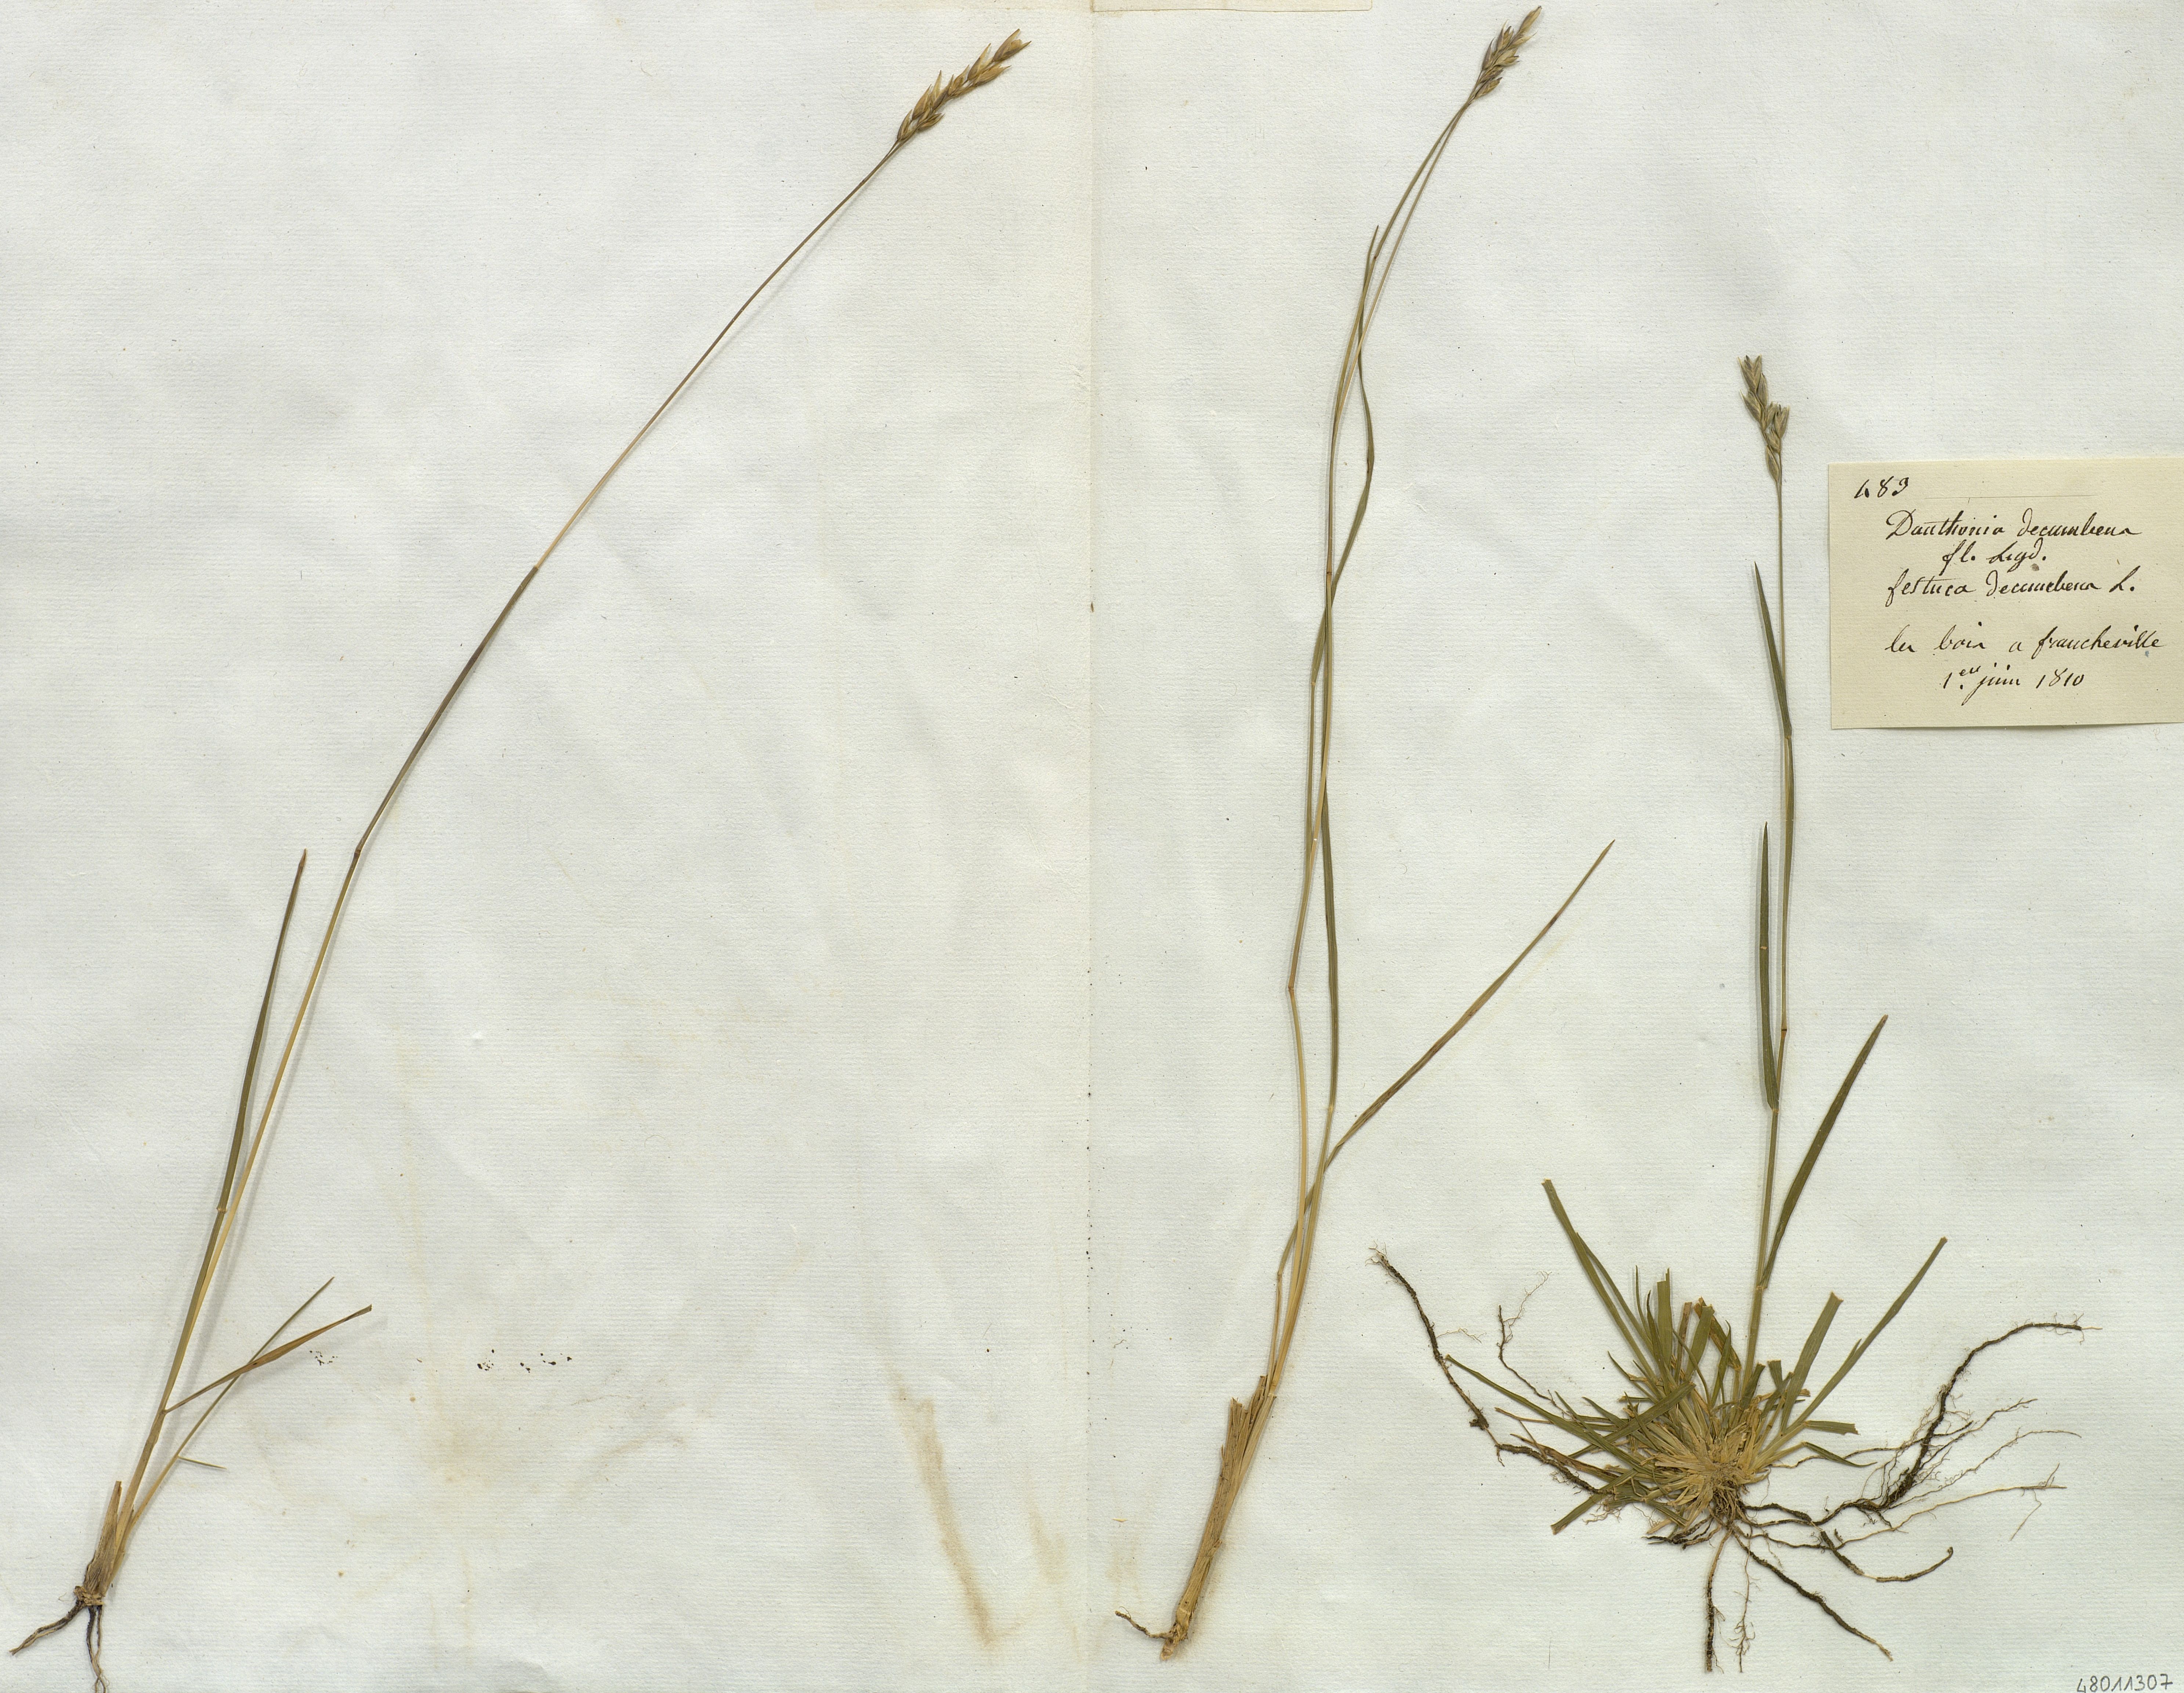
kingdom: Plantae
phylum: Tracheophyta
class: Liliopsida
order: Poales
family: Poaceae
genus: Danthonia
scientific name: Danthonia decumbens
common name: Common heathgrass
